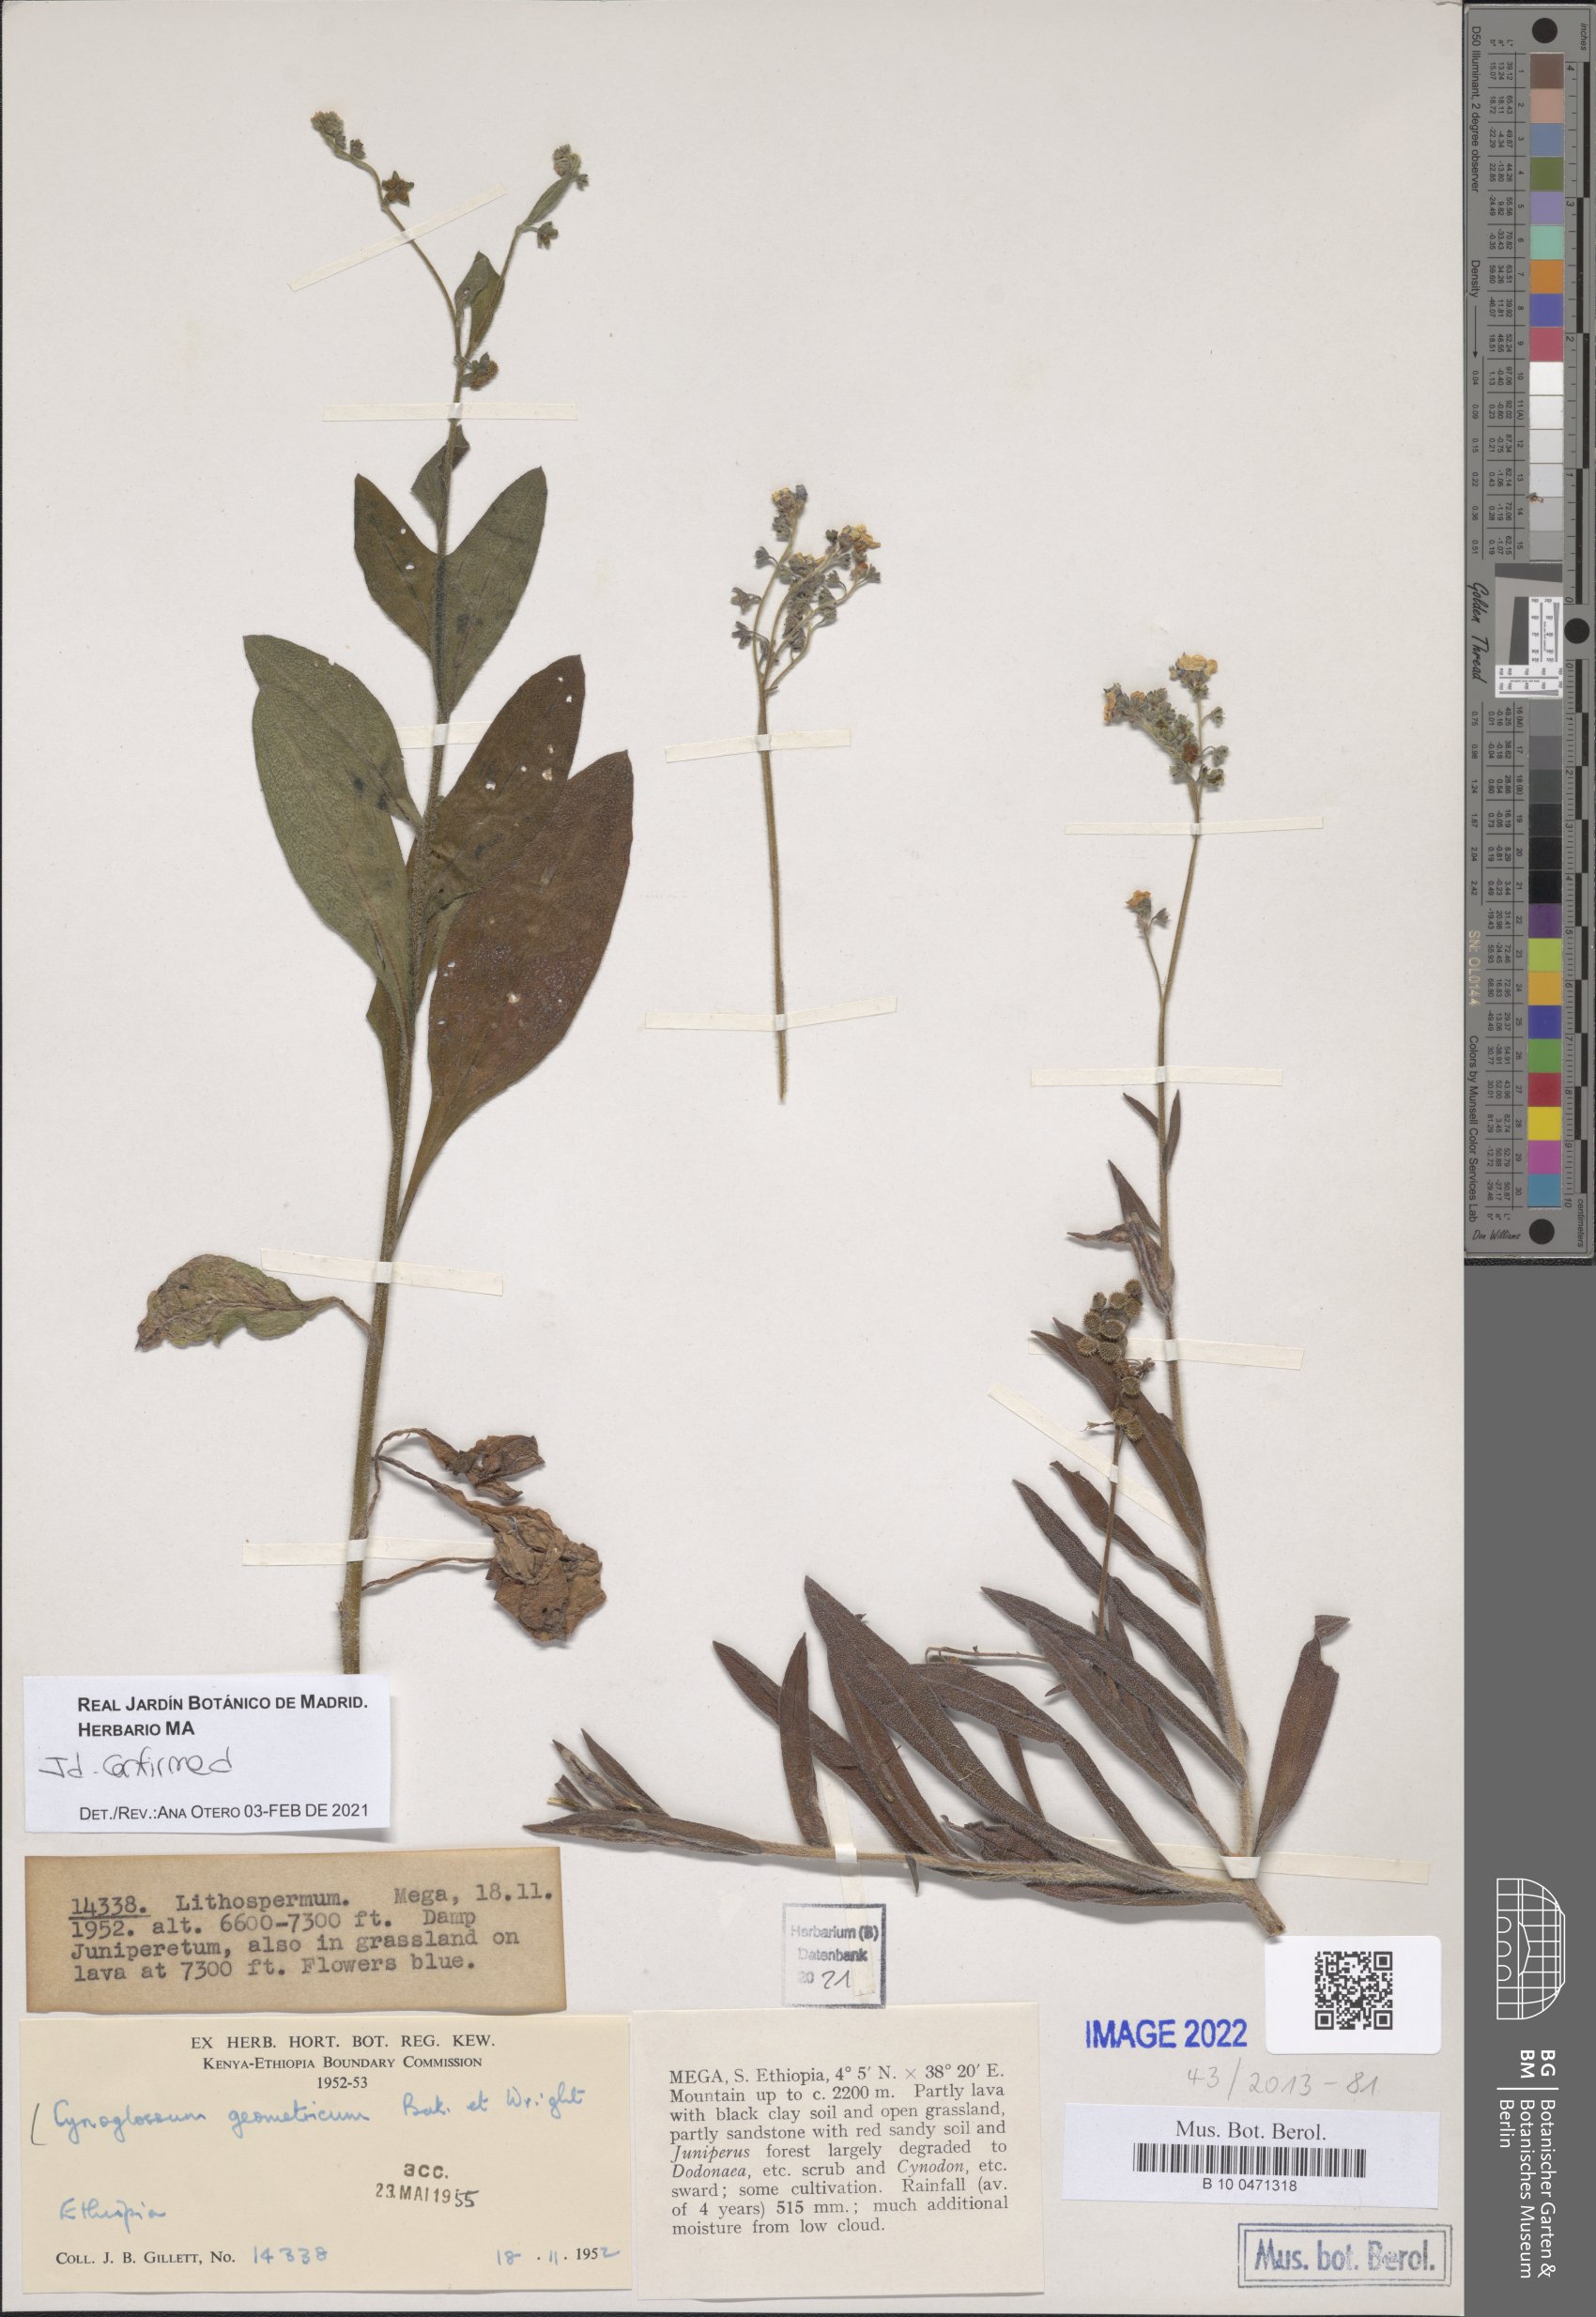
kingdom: Plantae
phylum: Tracheophyta
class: Magnoliopsida
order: Boraginales
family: Boraginaceae
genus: Paracynoglossum
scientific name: Paracynoglossum geometricum
